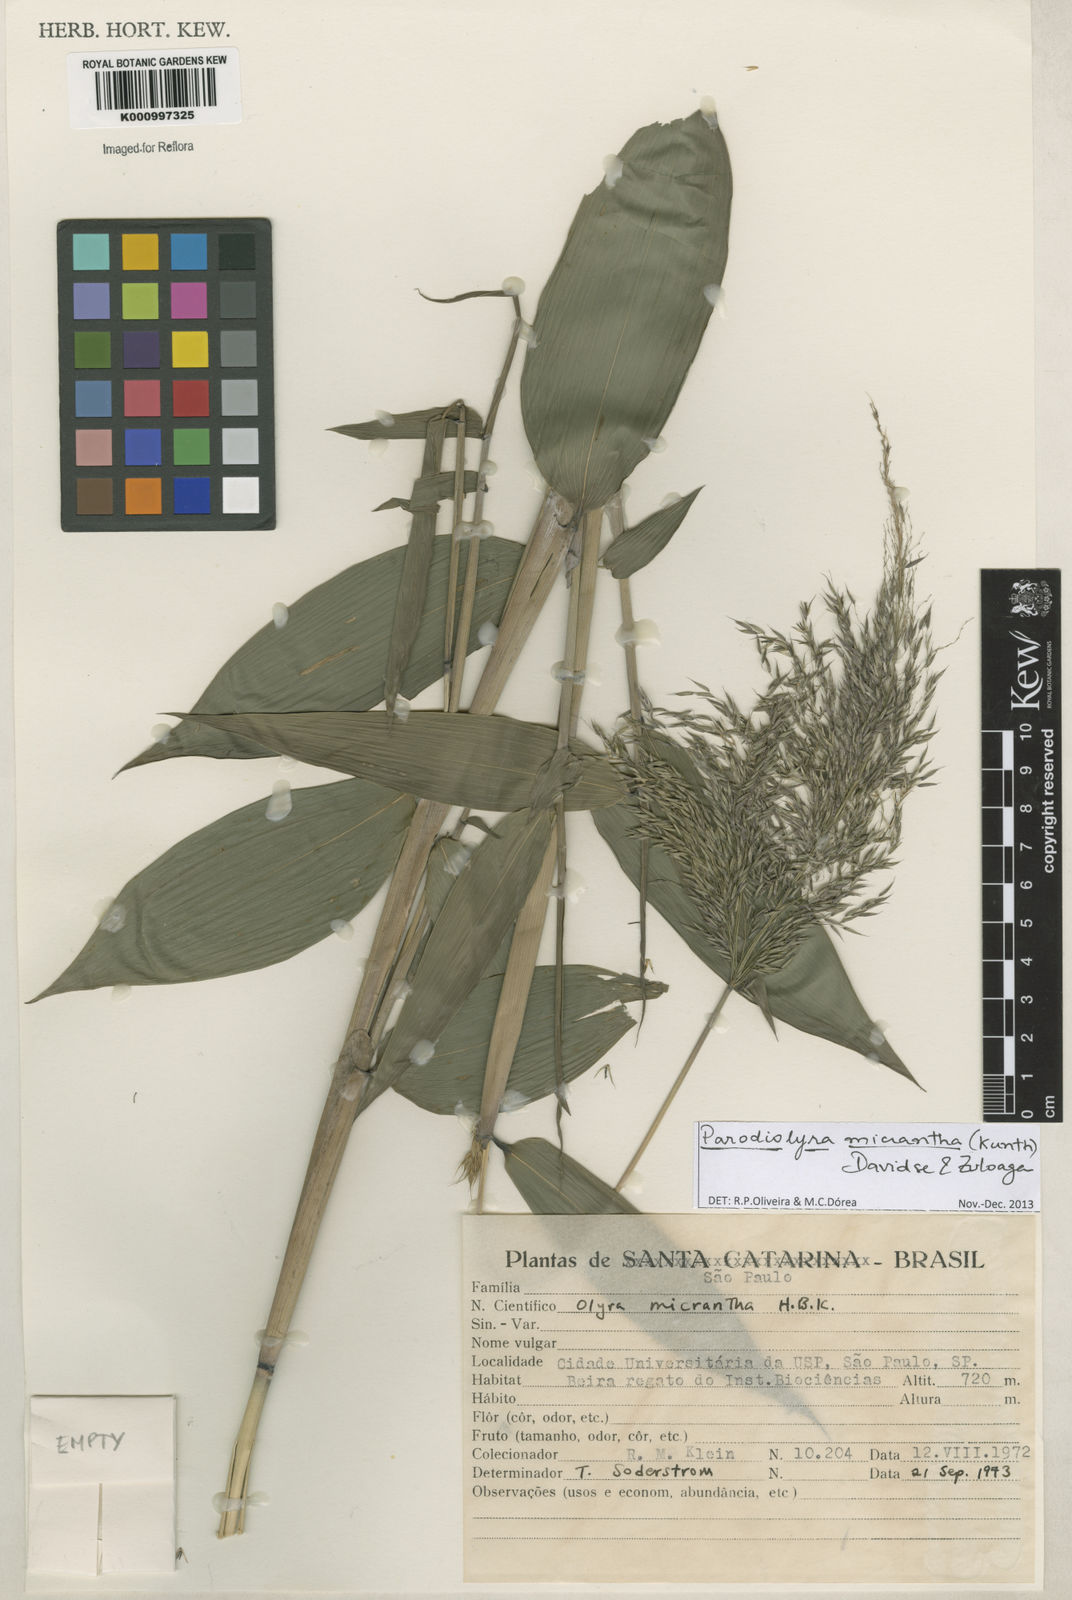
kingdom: Plantae
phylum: Tracheophyta
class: Liliopsida
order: Poales
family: Poaceae
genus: Taquara
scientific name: Taquara micrantha
